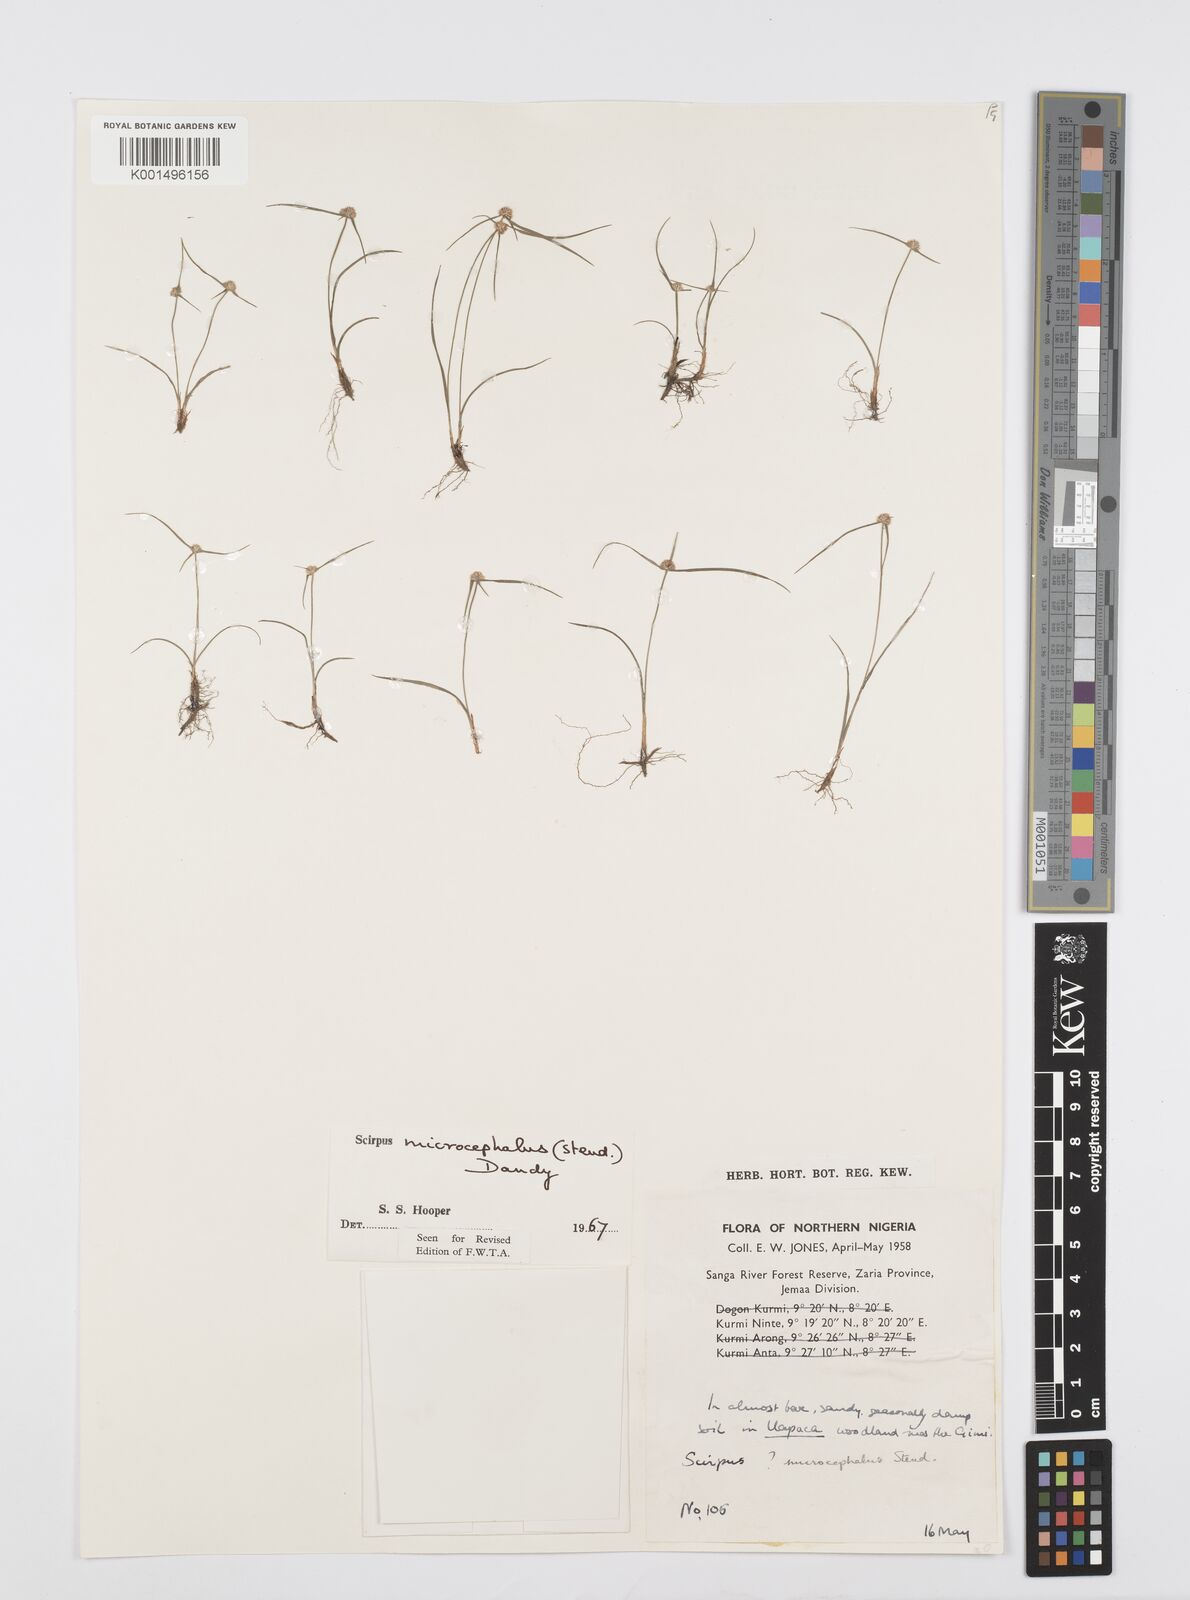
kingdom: Plantae
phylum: Tracheophyta
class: Liliopsida
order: Poales
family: Cyperaceae
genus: Cyperus
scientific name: Cyperus microcephalus
